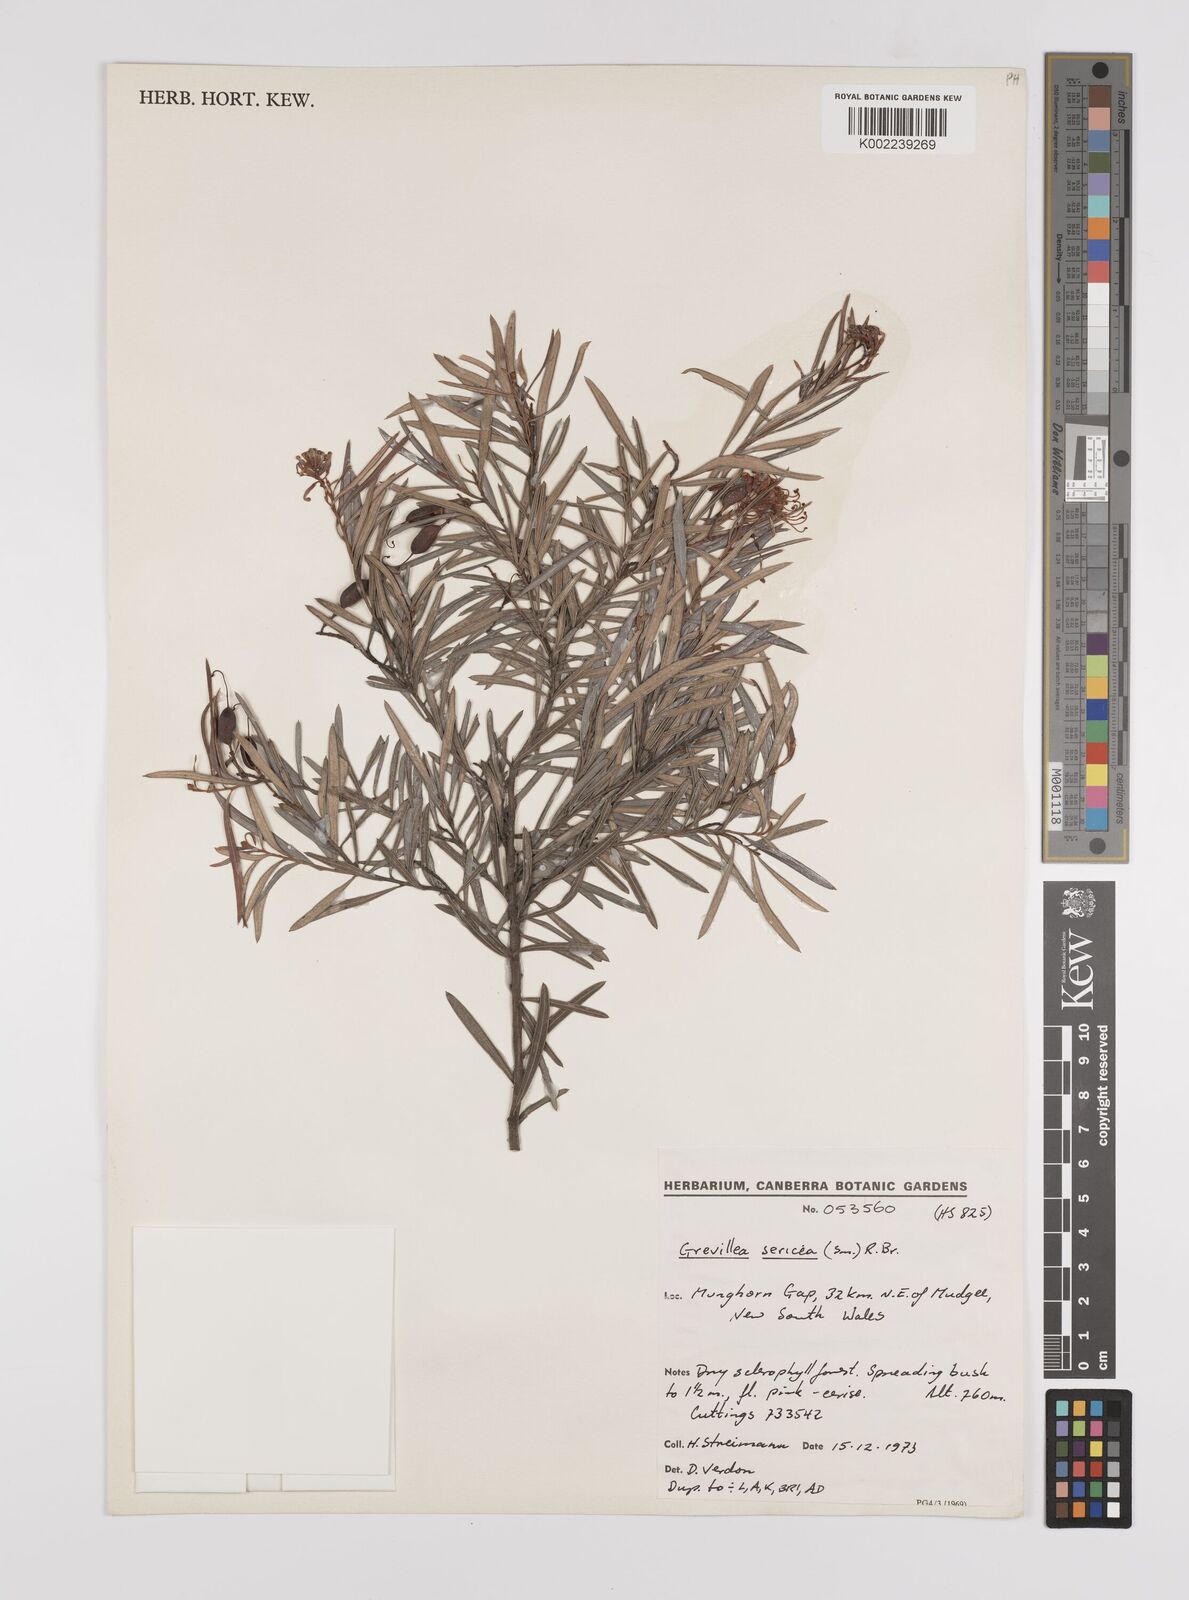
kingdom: Plantae
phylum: Tracheophyta
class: Magnoliopsida
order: Proteales
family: Proteaceae
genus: Grevillea
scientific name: Grevillea sericea
